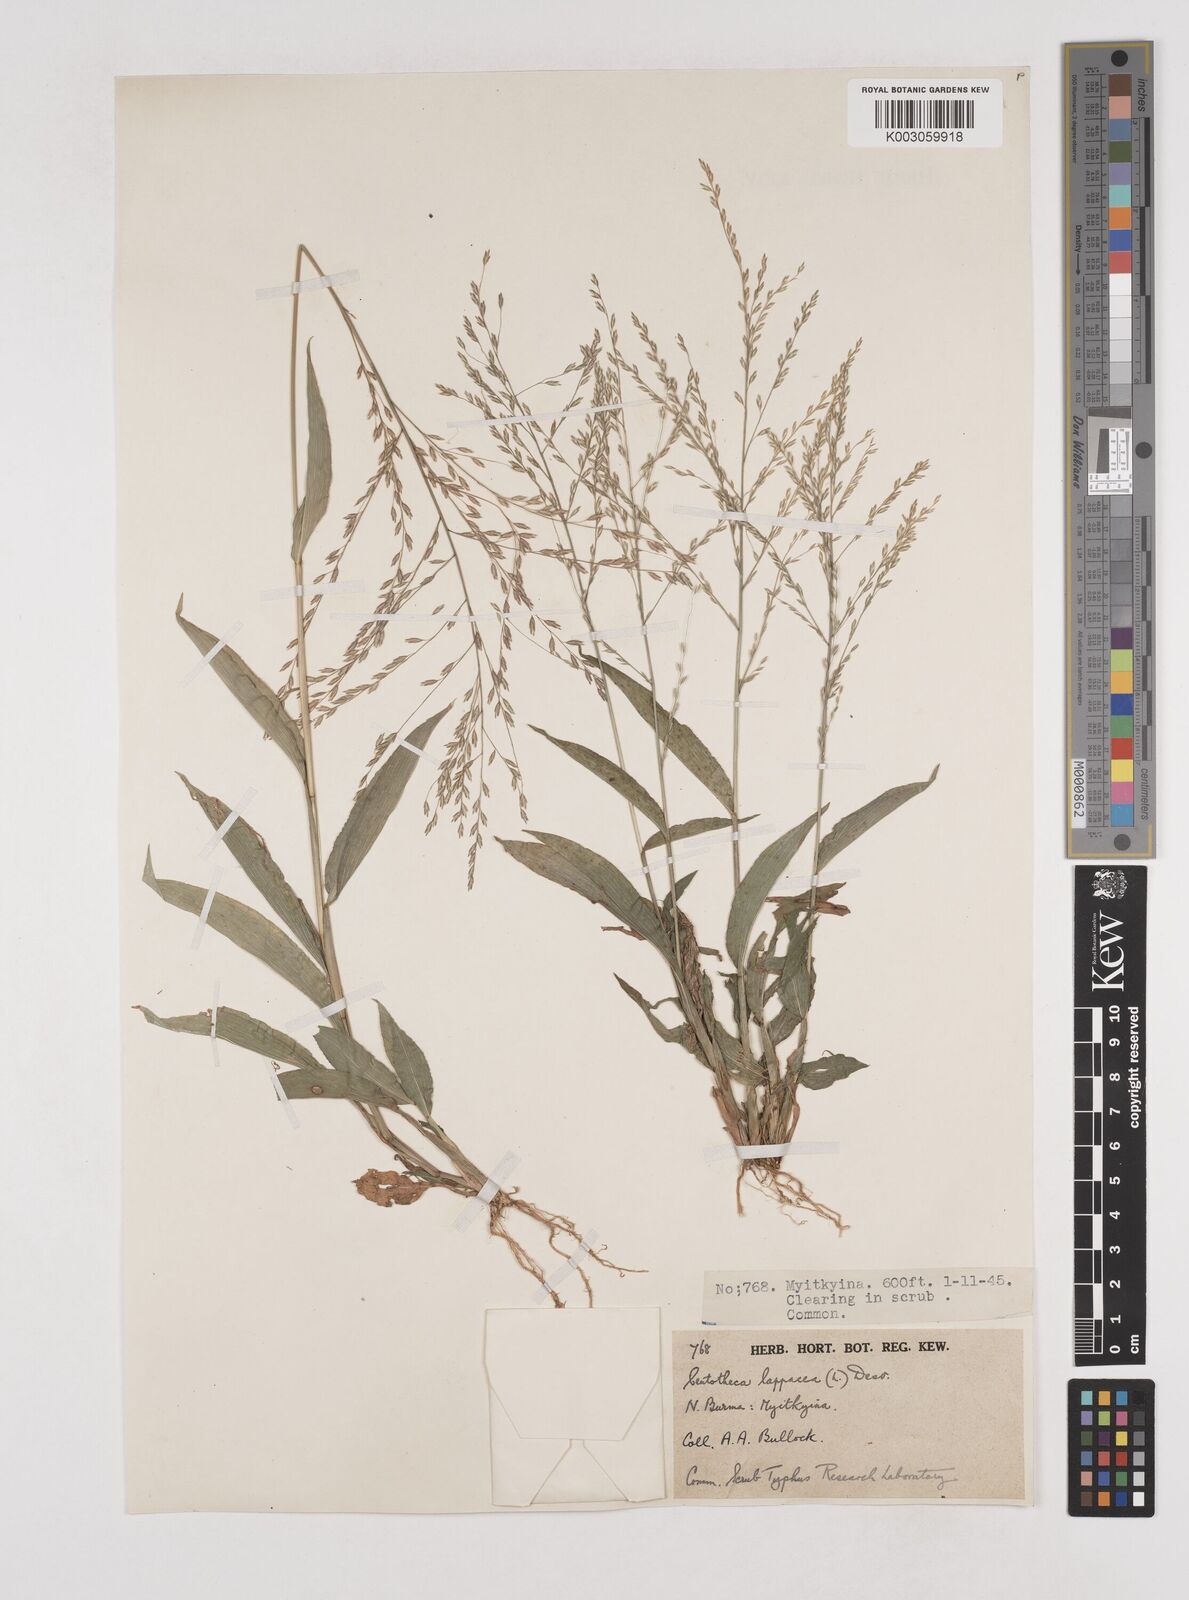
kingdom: Plantae
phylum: Tracheophyta
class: Liliopsida
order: Poales
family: Poaceae
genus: Centotheca
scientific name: Centotheca lappacea
